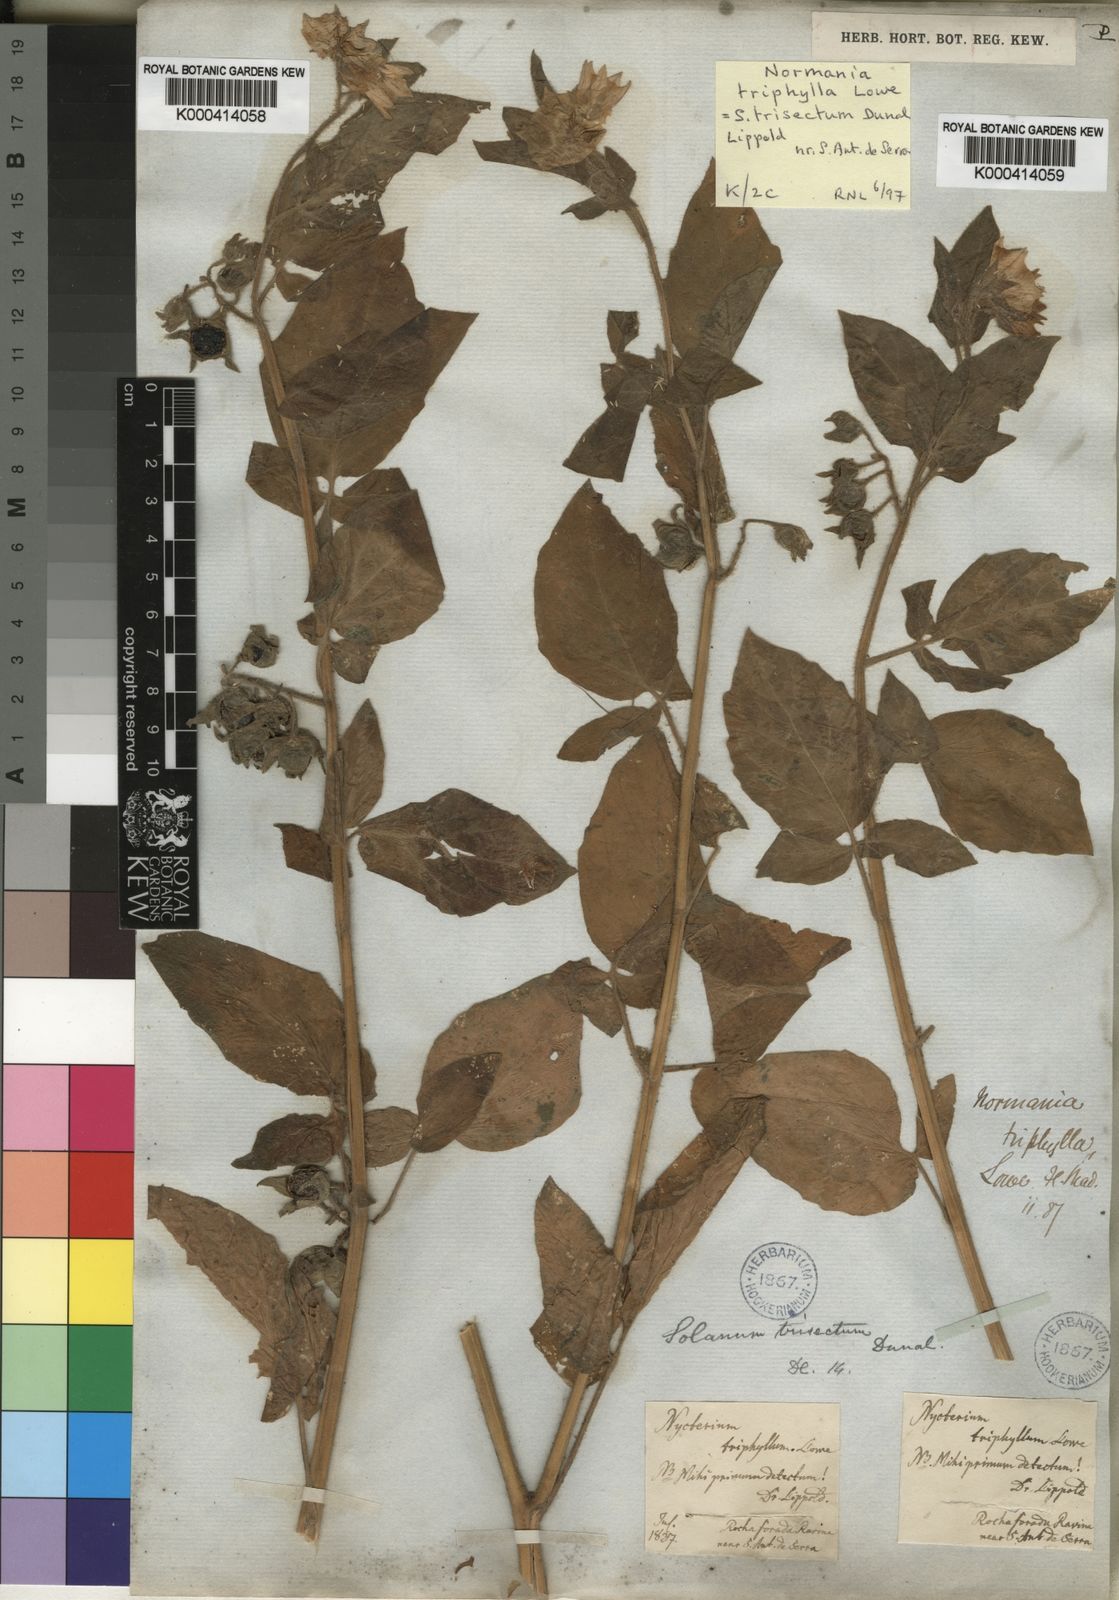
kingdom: Plantae
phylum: Tracheophyta
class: Magnoliopsida
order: Solanales
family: Solanaceae
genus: Solanum
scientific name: Solanum trisectum
